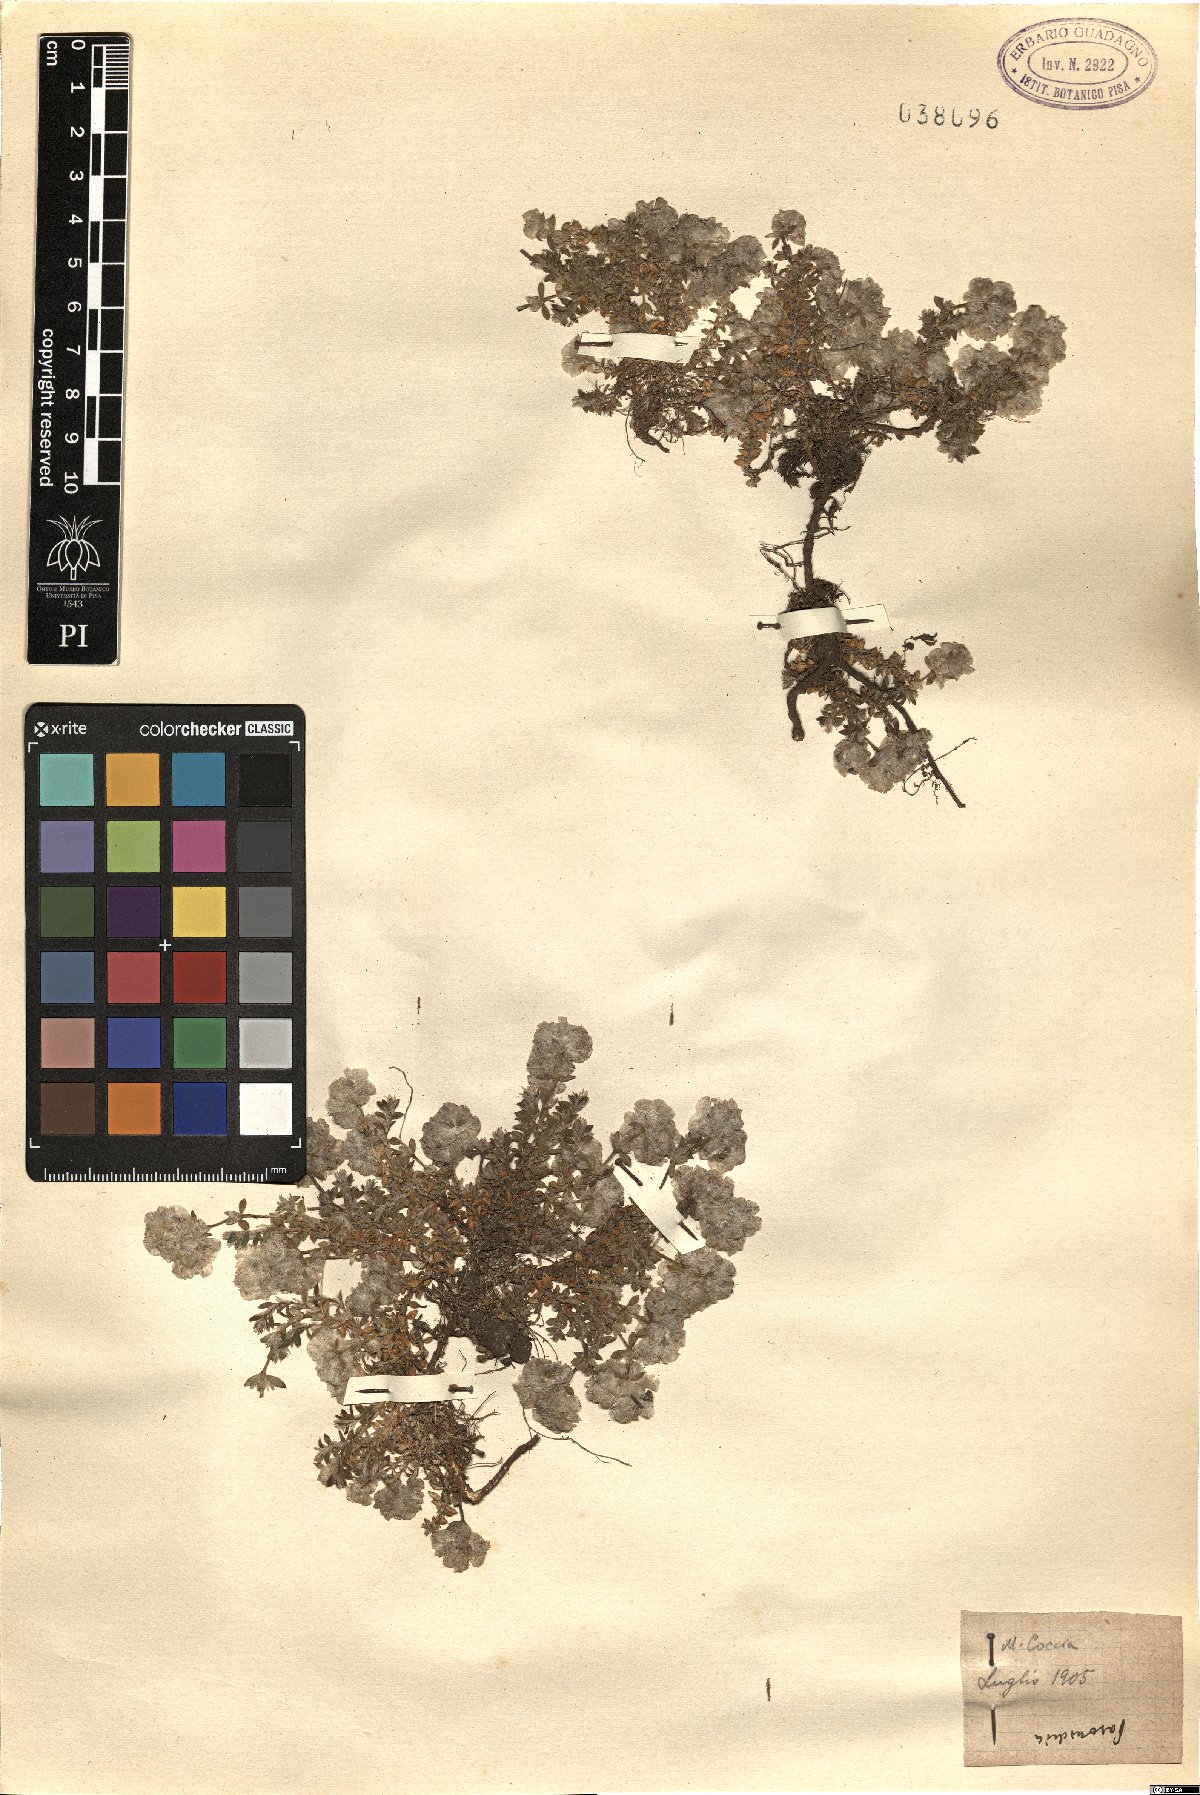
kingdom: Plantae
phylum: Tracheophyta
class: Magnoliopsida
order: Caryophyllales
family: Caryophyllaceae
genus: Paronychia
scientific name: Paronychia
